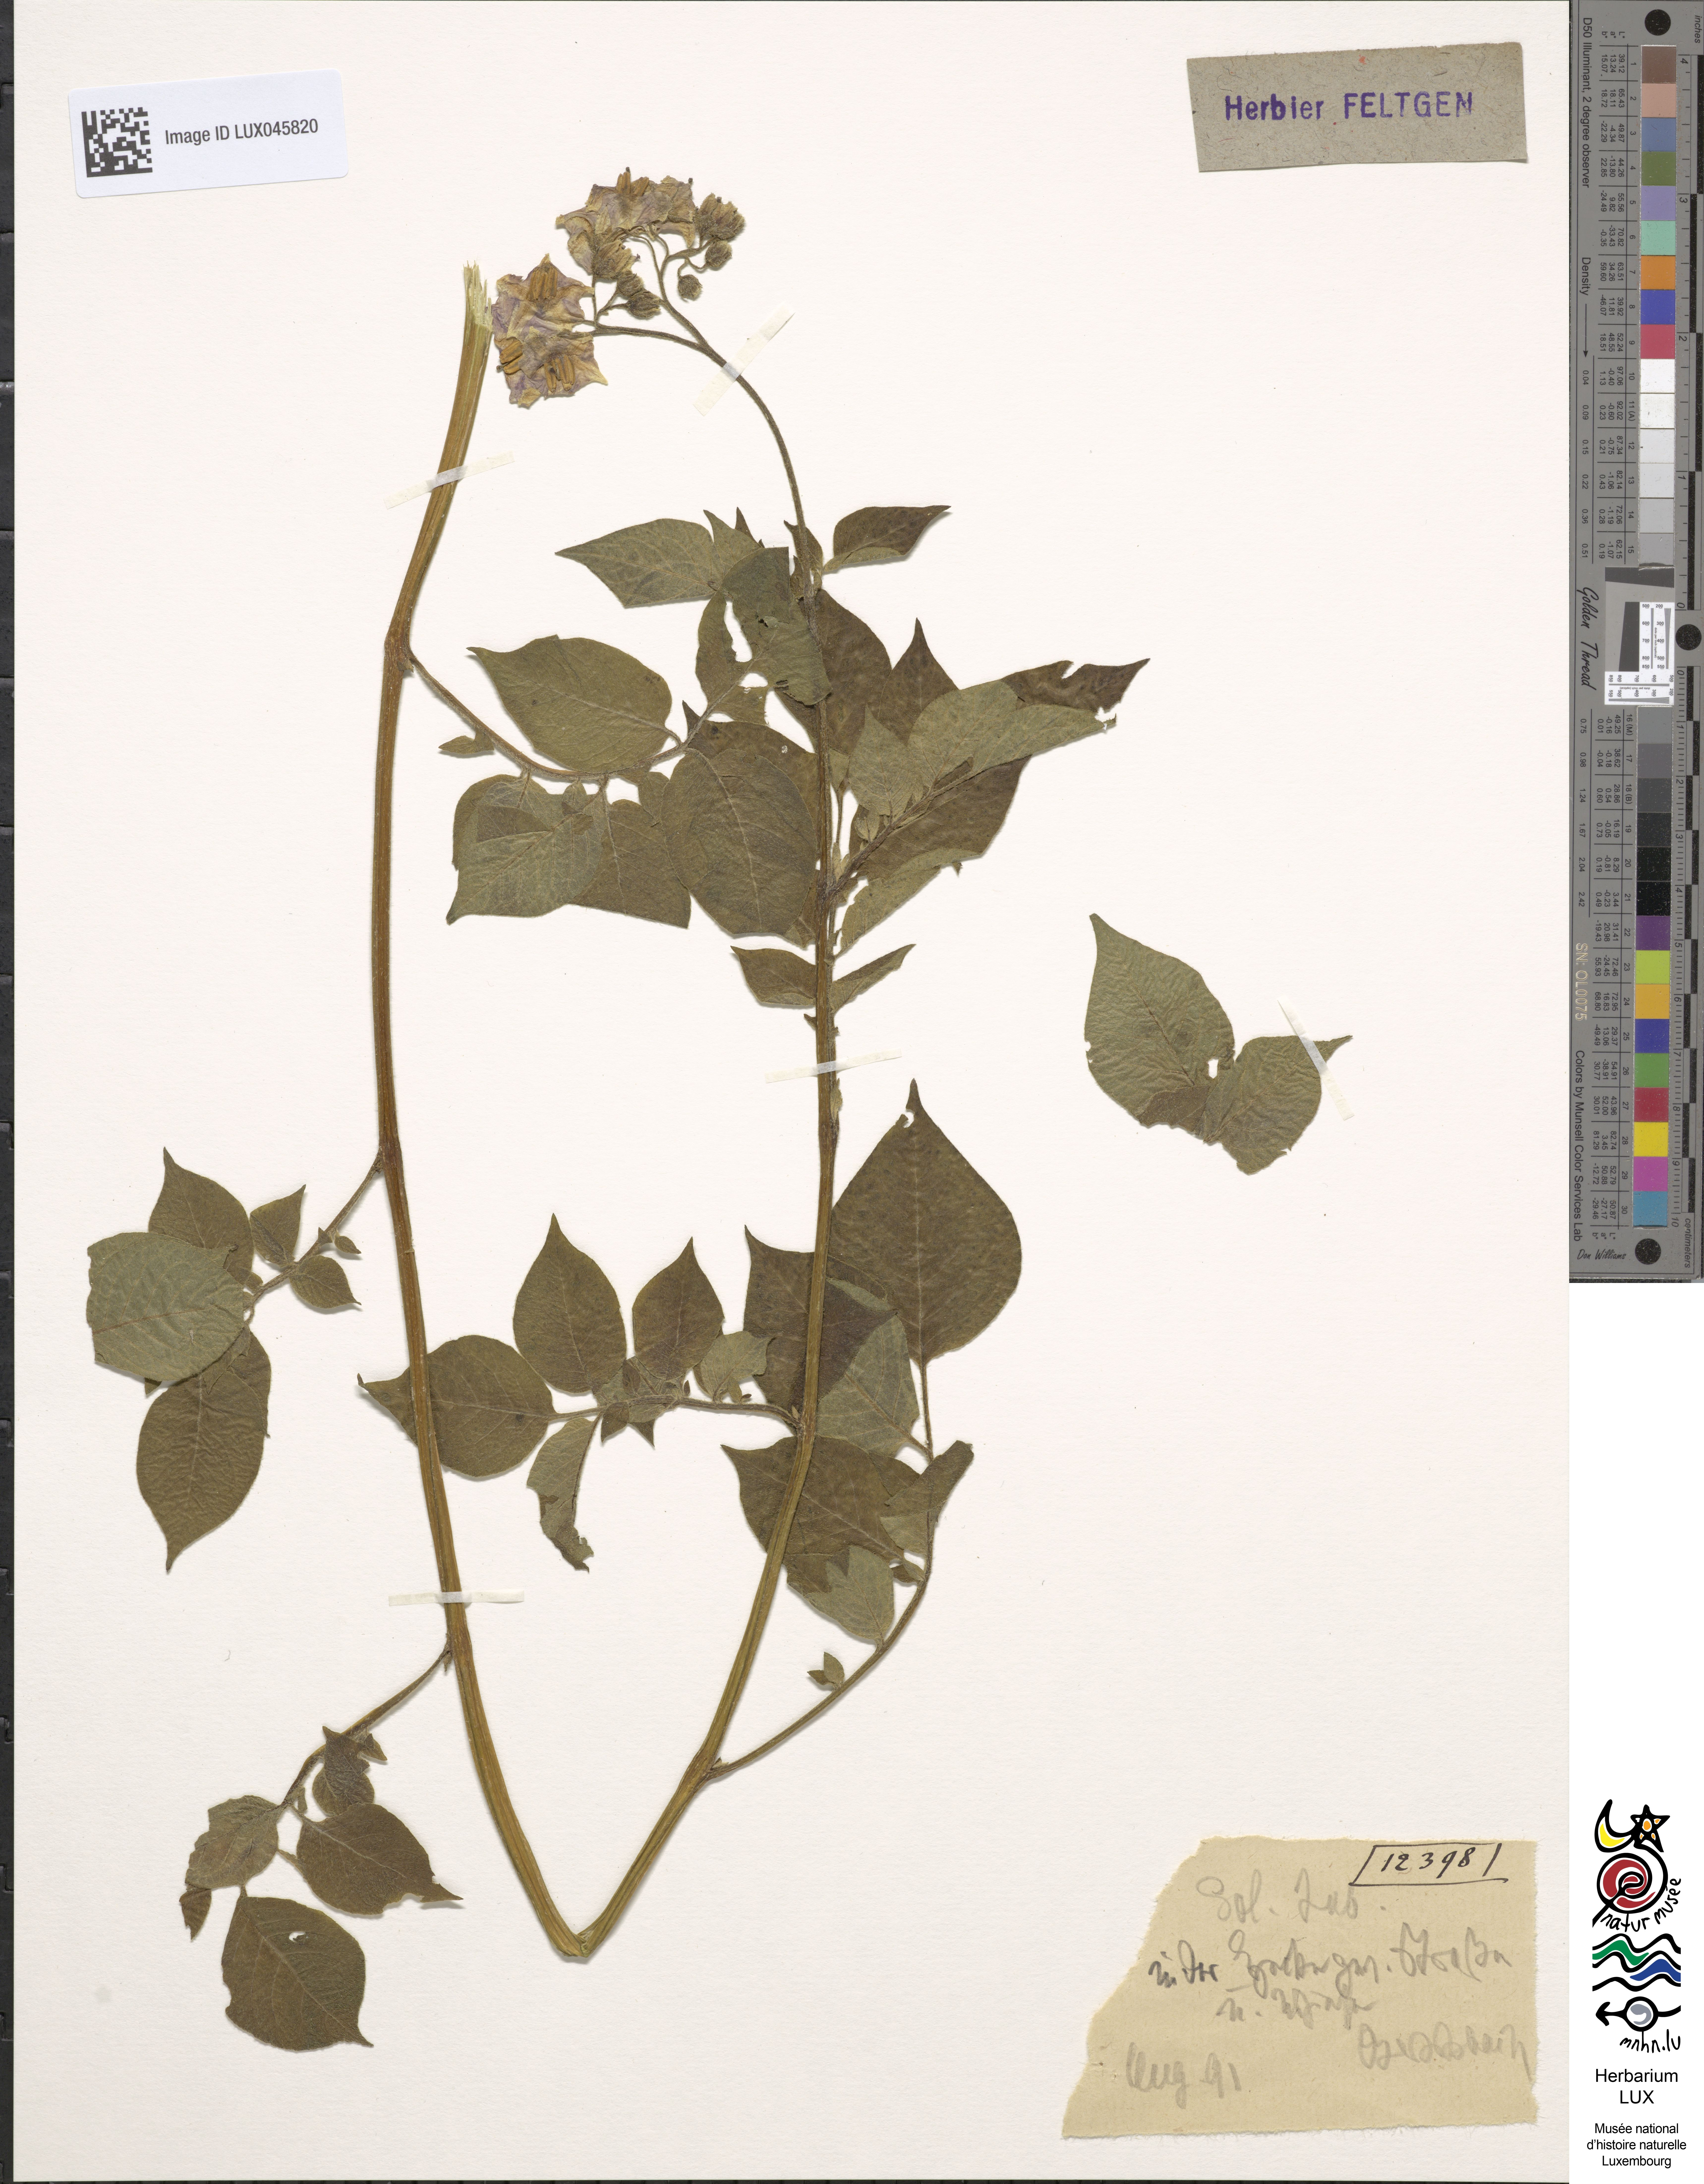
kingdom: Plantae
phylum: Tracheophyta
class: Magnoliopsida
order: Solanales
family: Solanaceae
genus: Solanum
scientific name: Solanum tuberosum
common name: Potato
